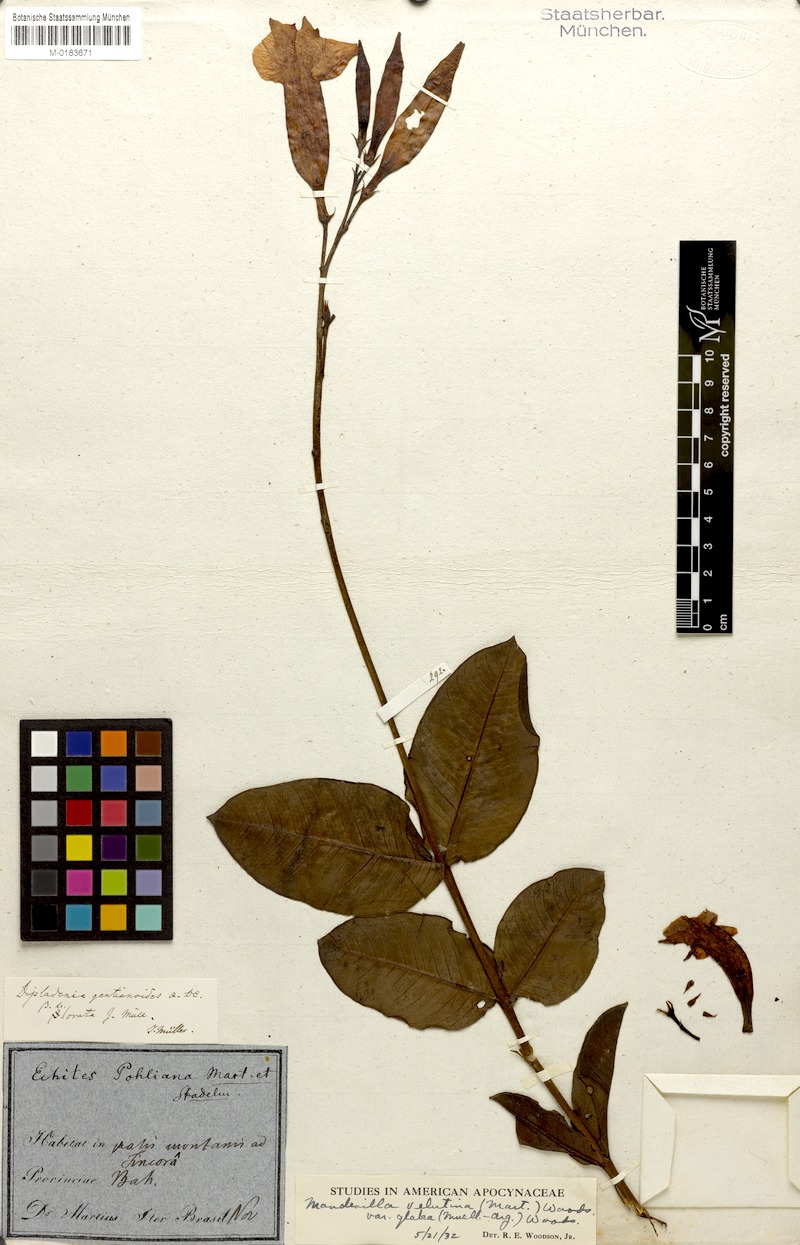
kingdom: Plantae
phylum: Tracheophyta
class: Magnoliopsida
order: Gentianales
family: Apocynaceae
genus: Mandevilla
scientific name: Mandevilla pohliana
